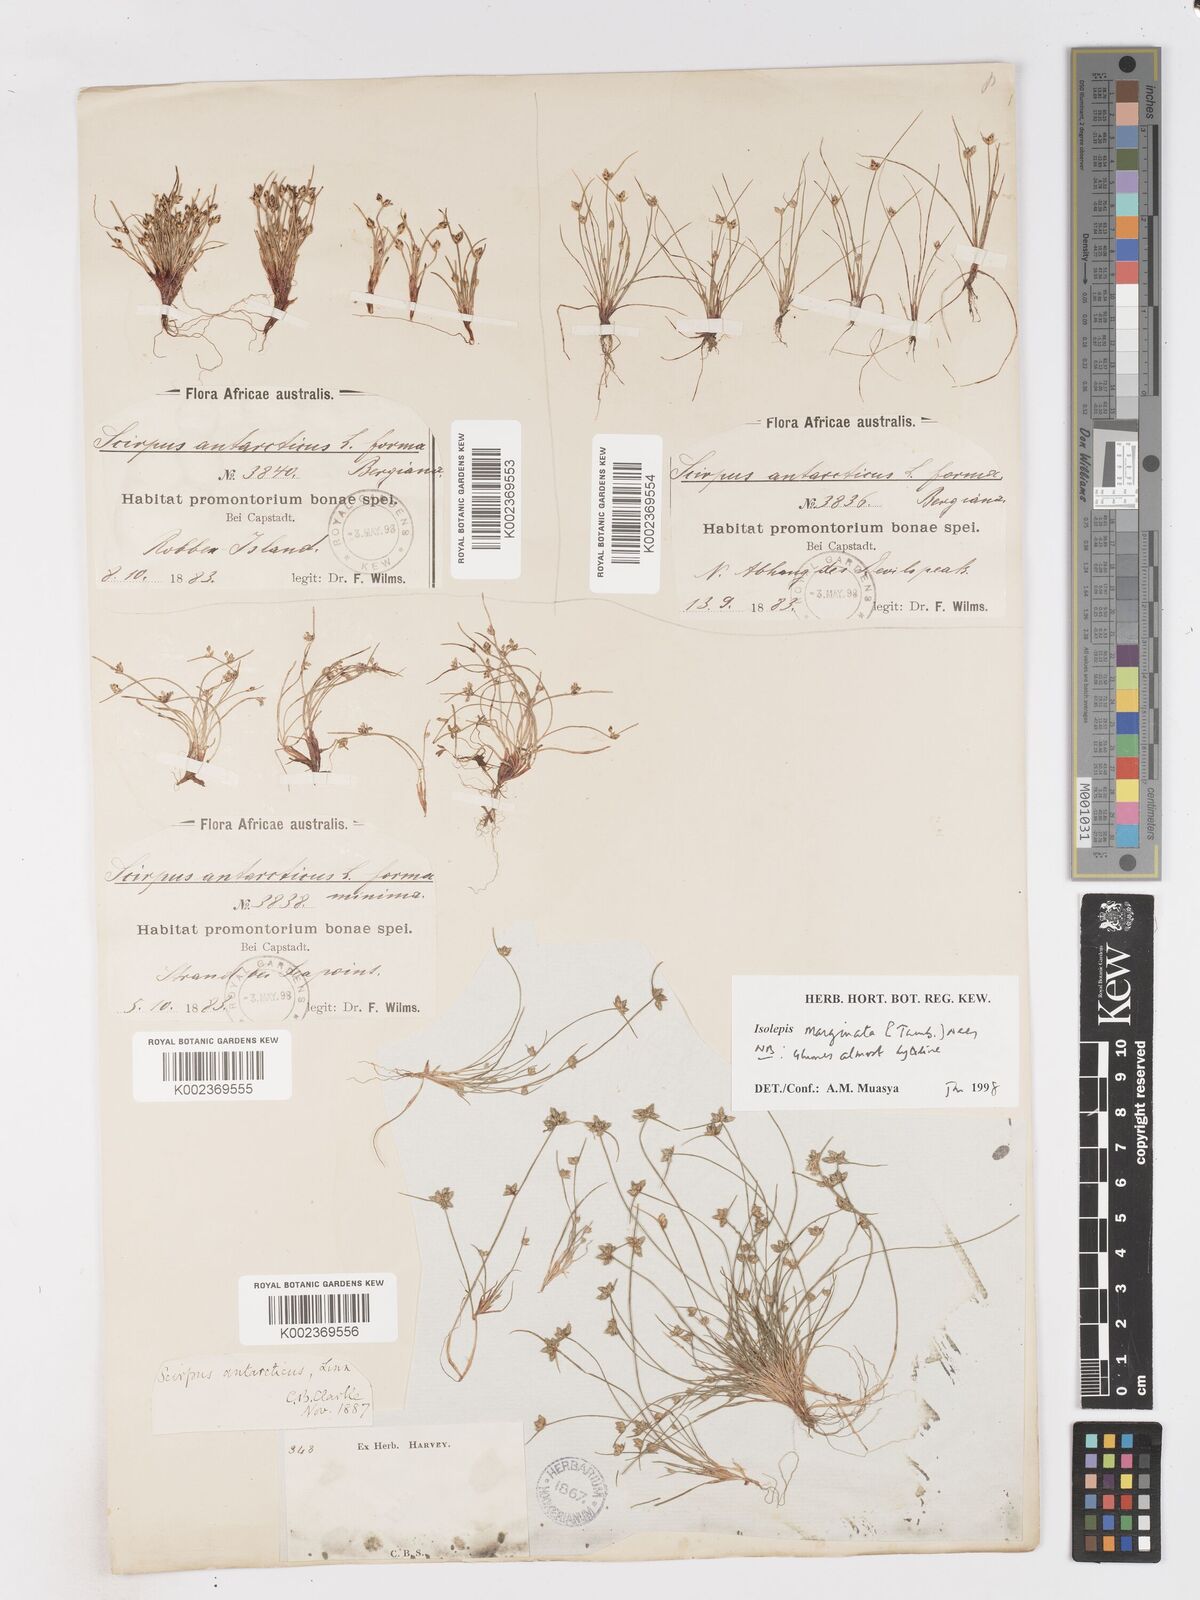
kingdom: Plantae
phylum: Tracheophyta
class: Liliopsida
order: Poales
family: Cyperaceae
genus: Isolepis
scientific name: Isolepis marginata
